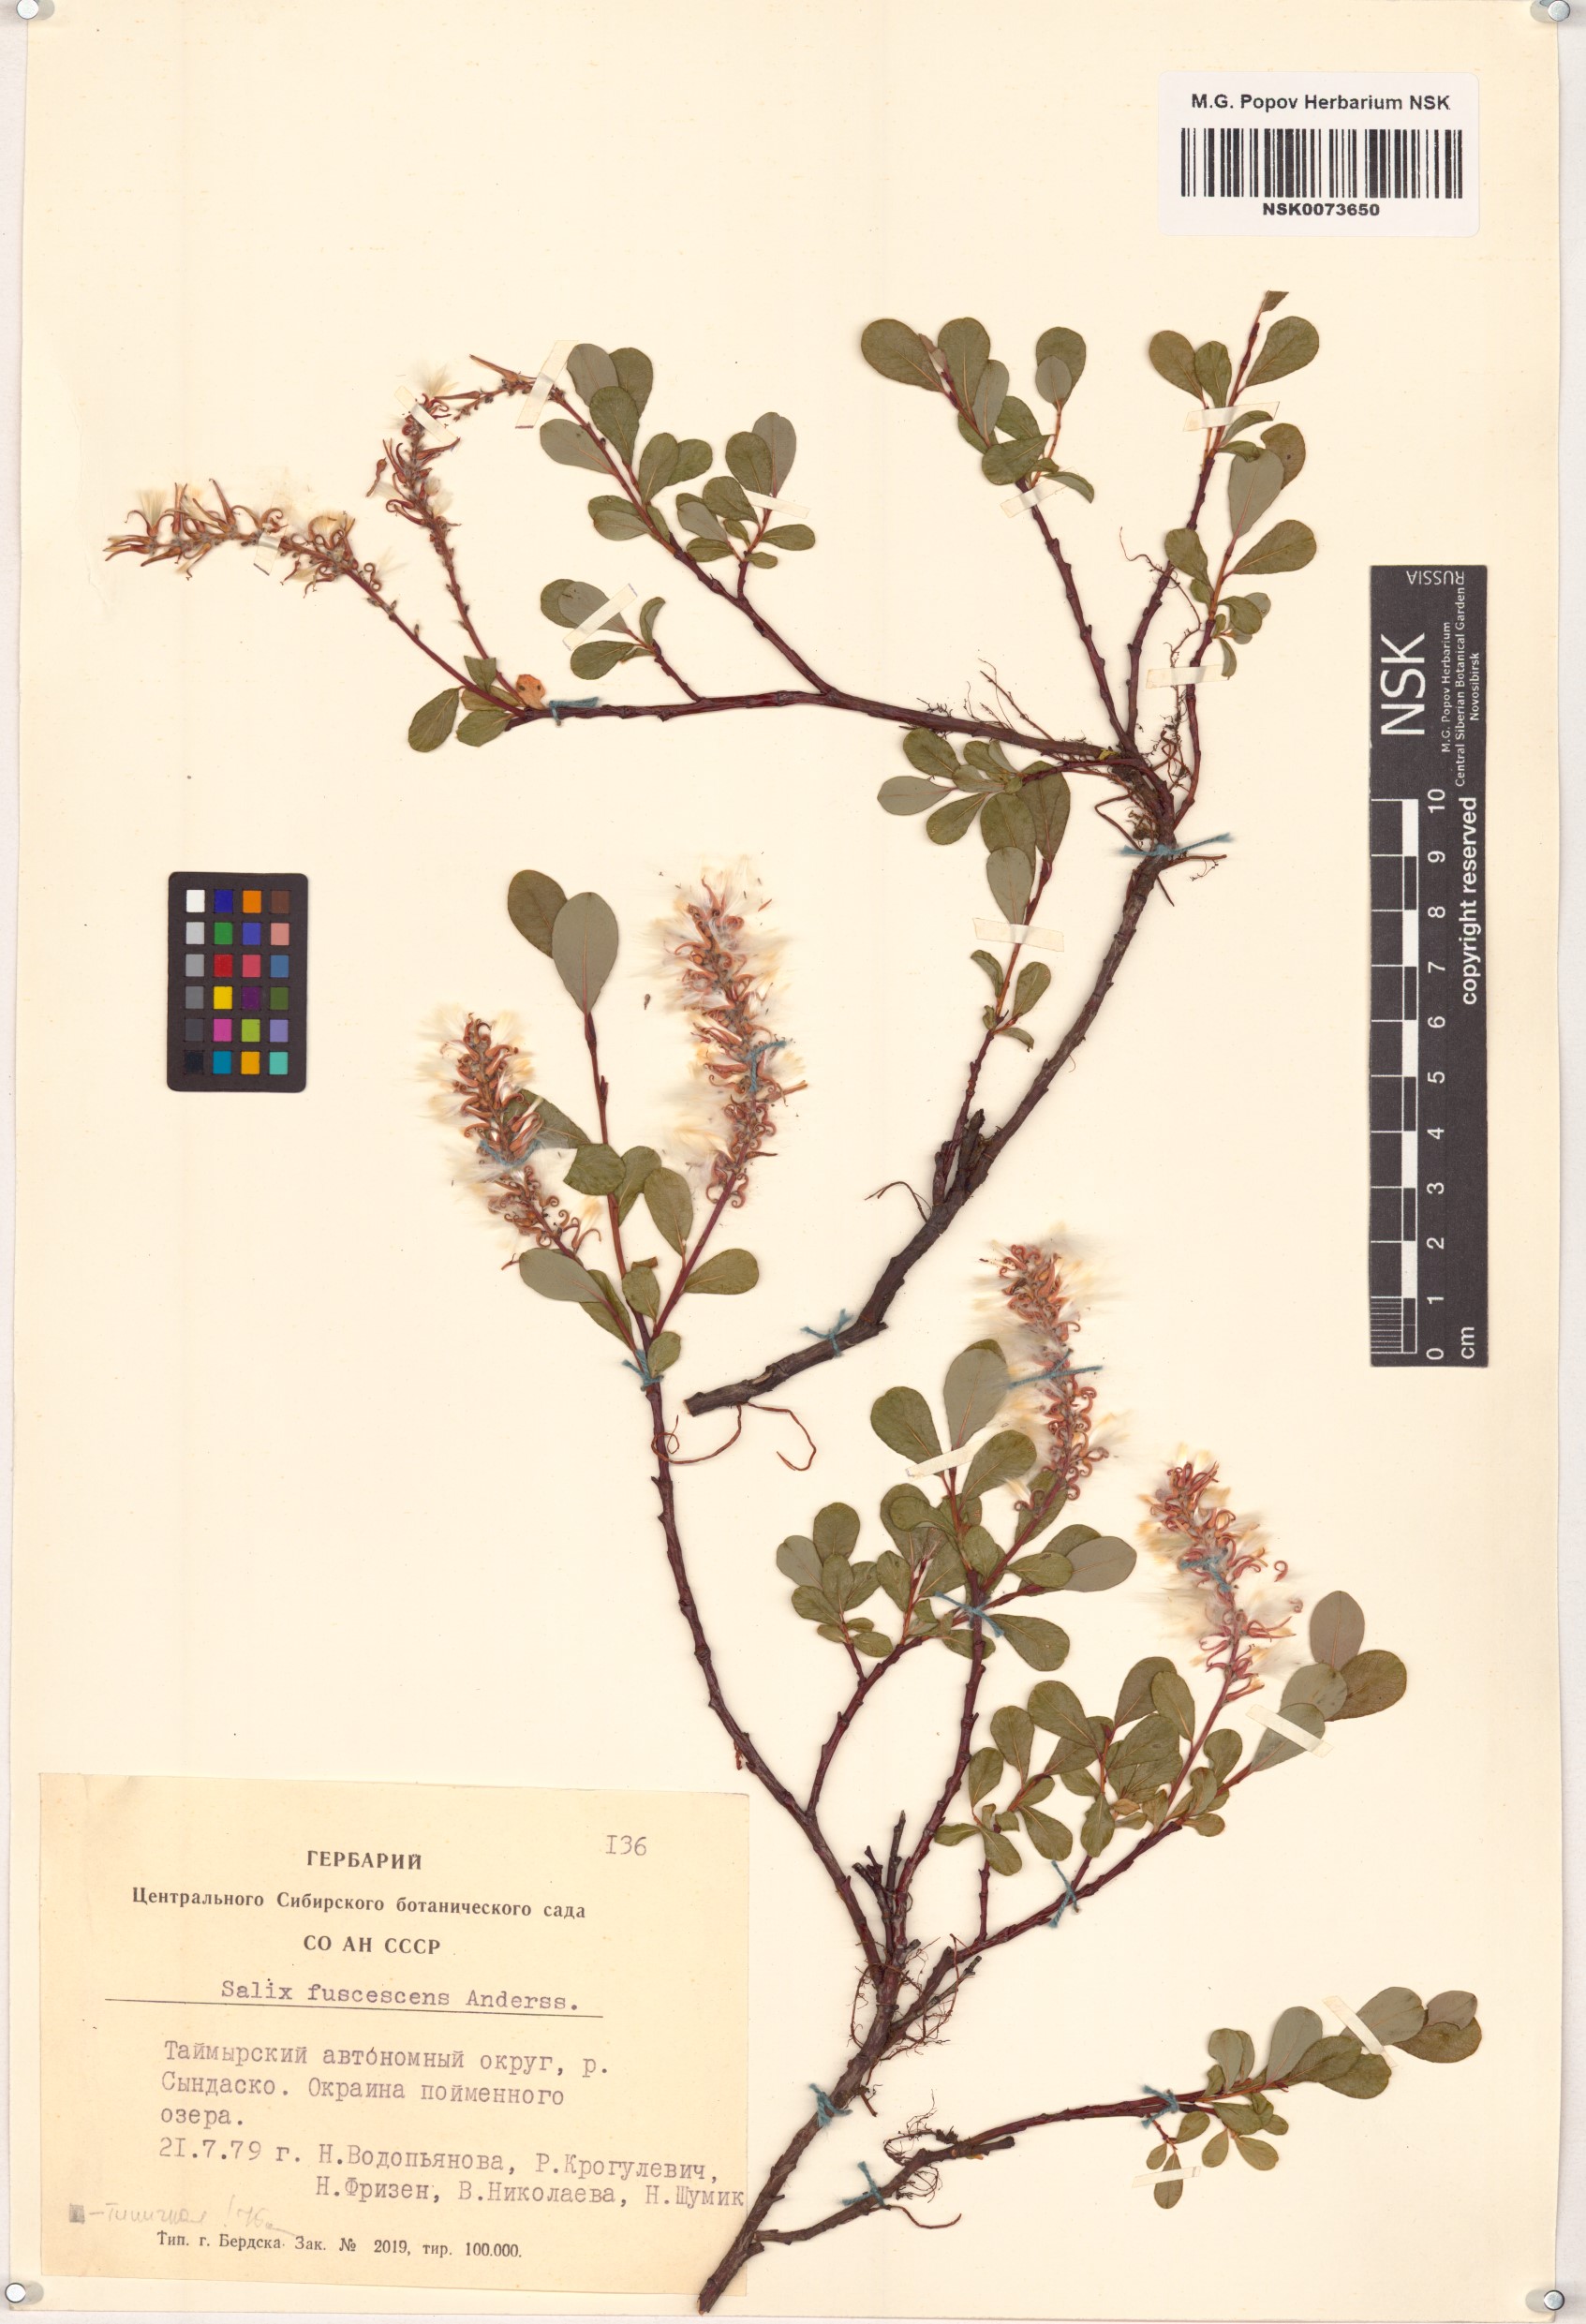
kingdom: Plantae
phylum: Tracheophyta
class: Magnoliopsida
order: Malpighiales
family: Salicaceae
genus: Salix
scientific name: Salix fuscescens
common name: Brownish willow
